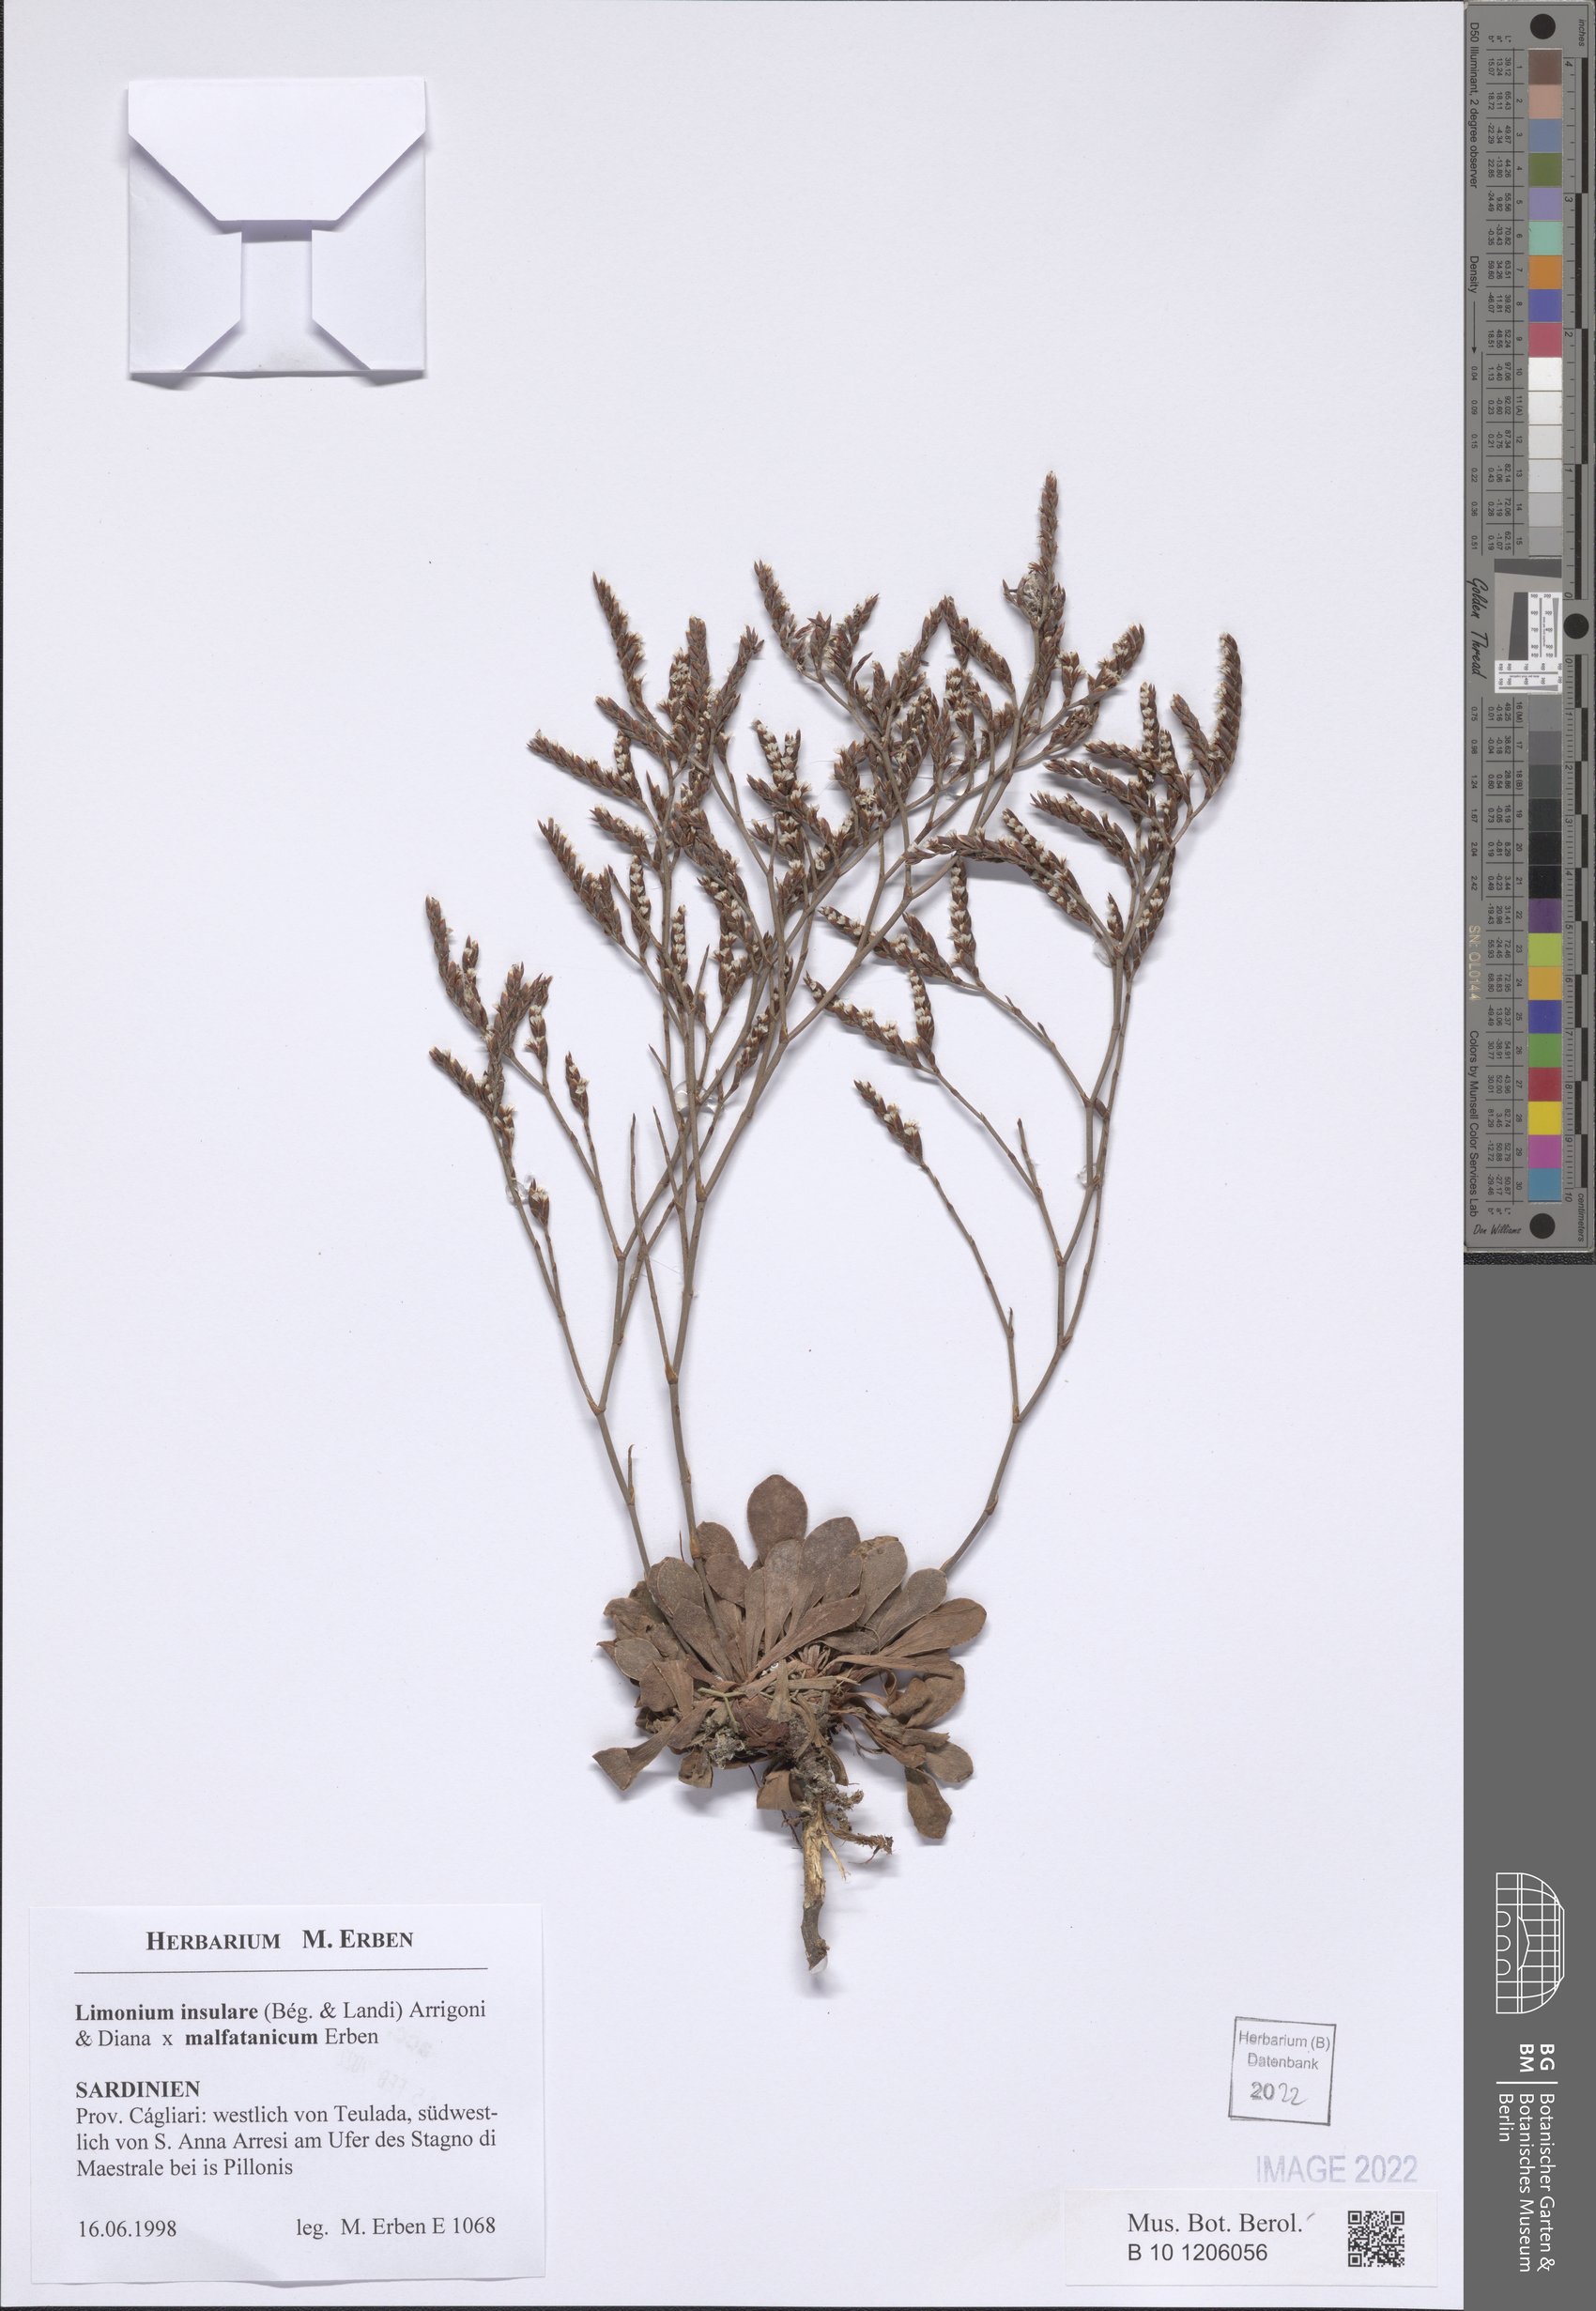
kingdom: Plantae
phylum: Tracheophyta
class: Magnoliopsida
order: Caryophyllales
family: Plumbaginaceae
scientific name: Plumbaginaceae
